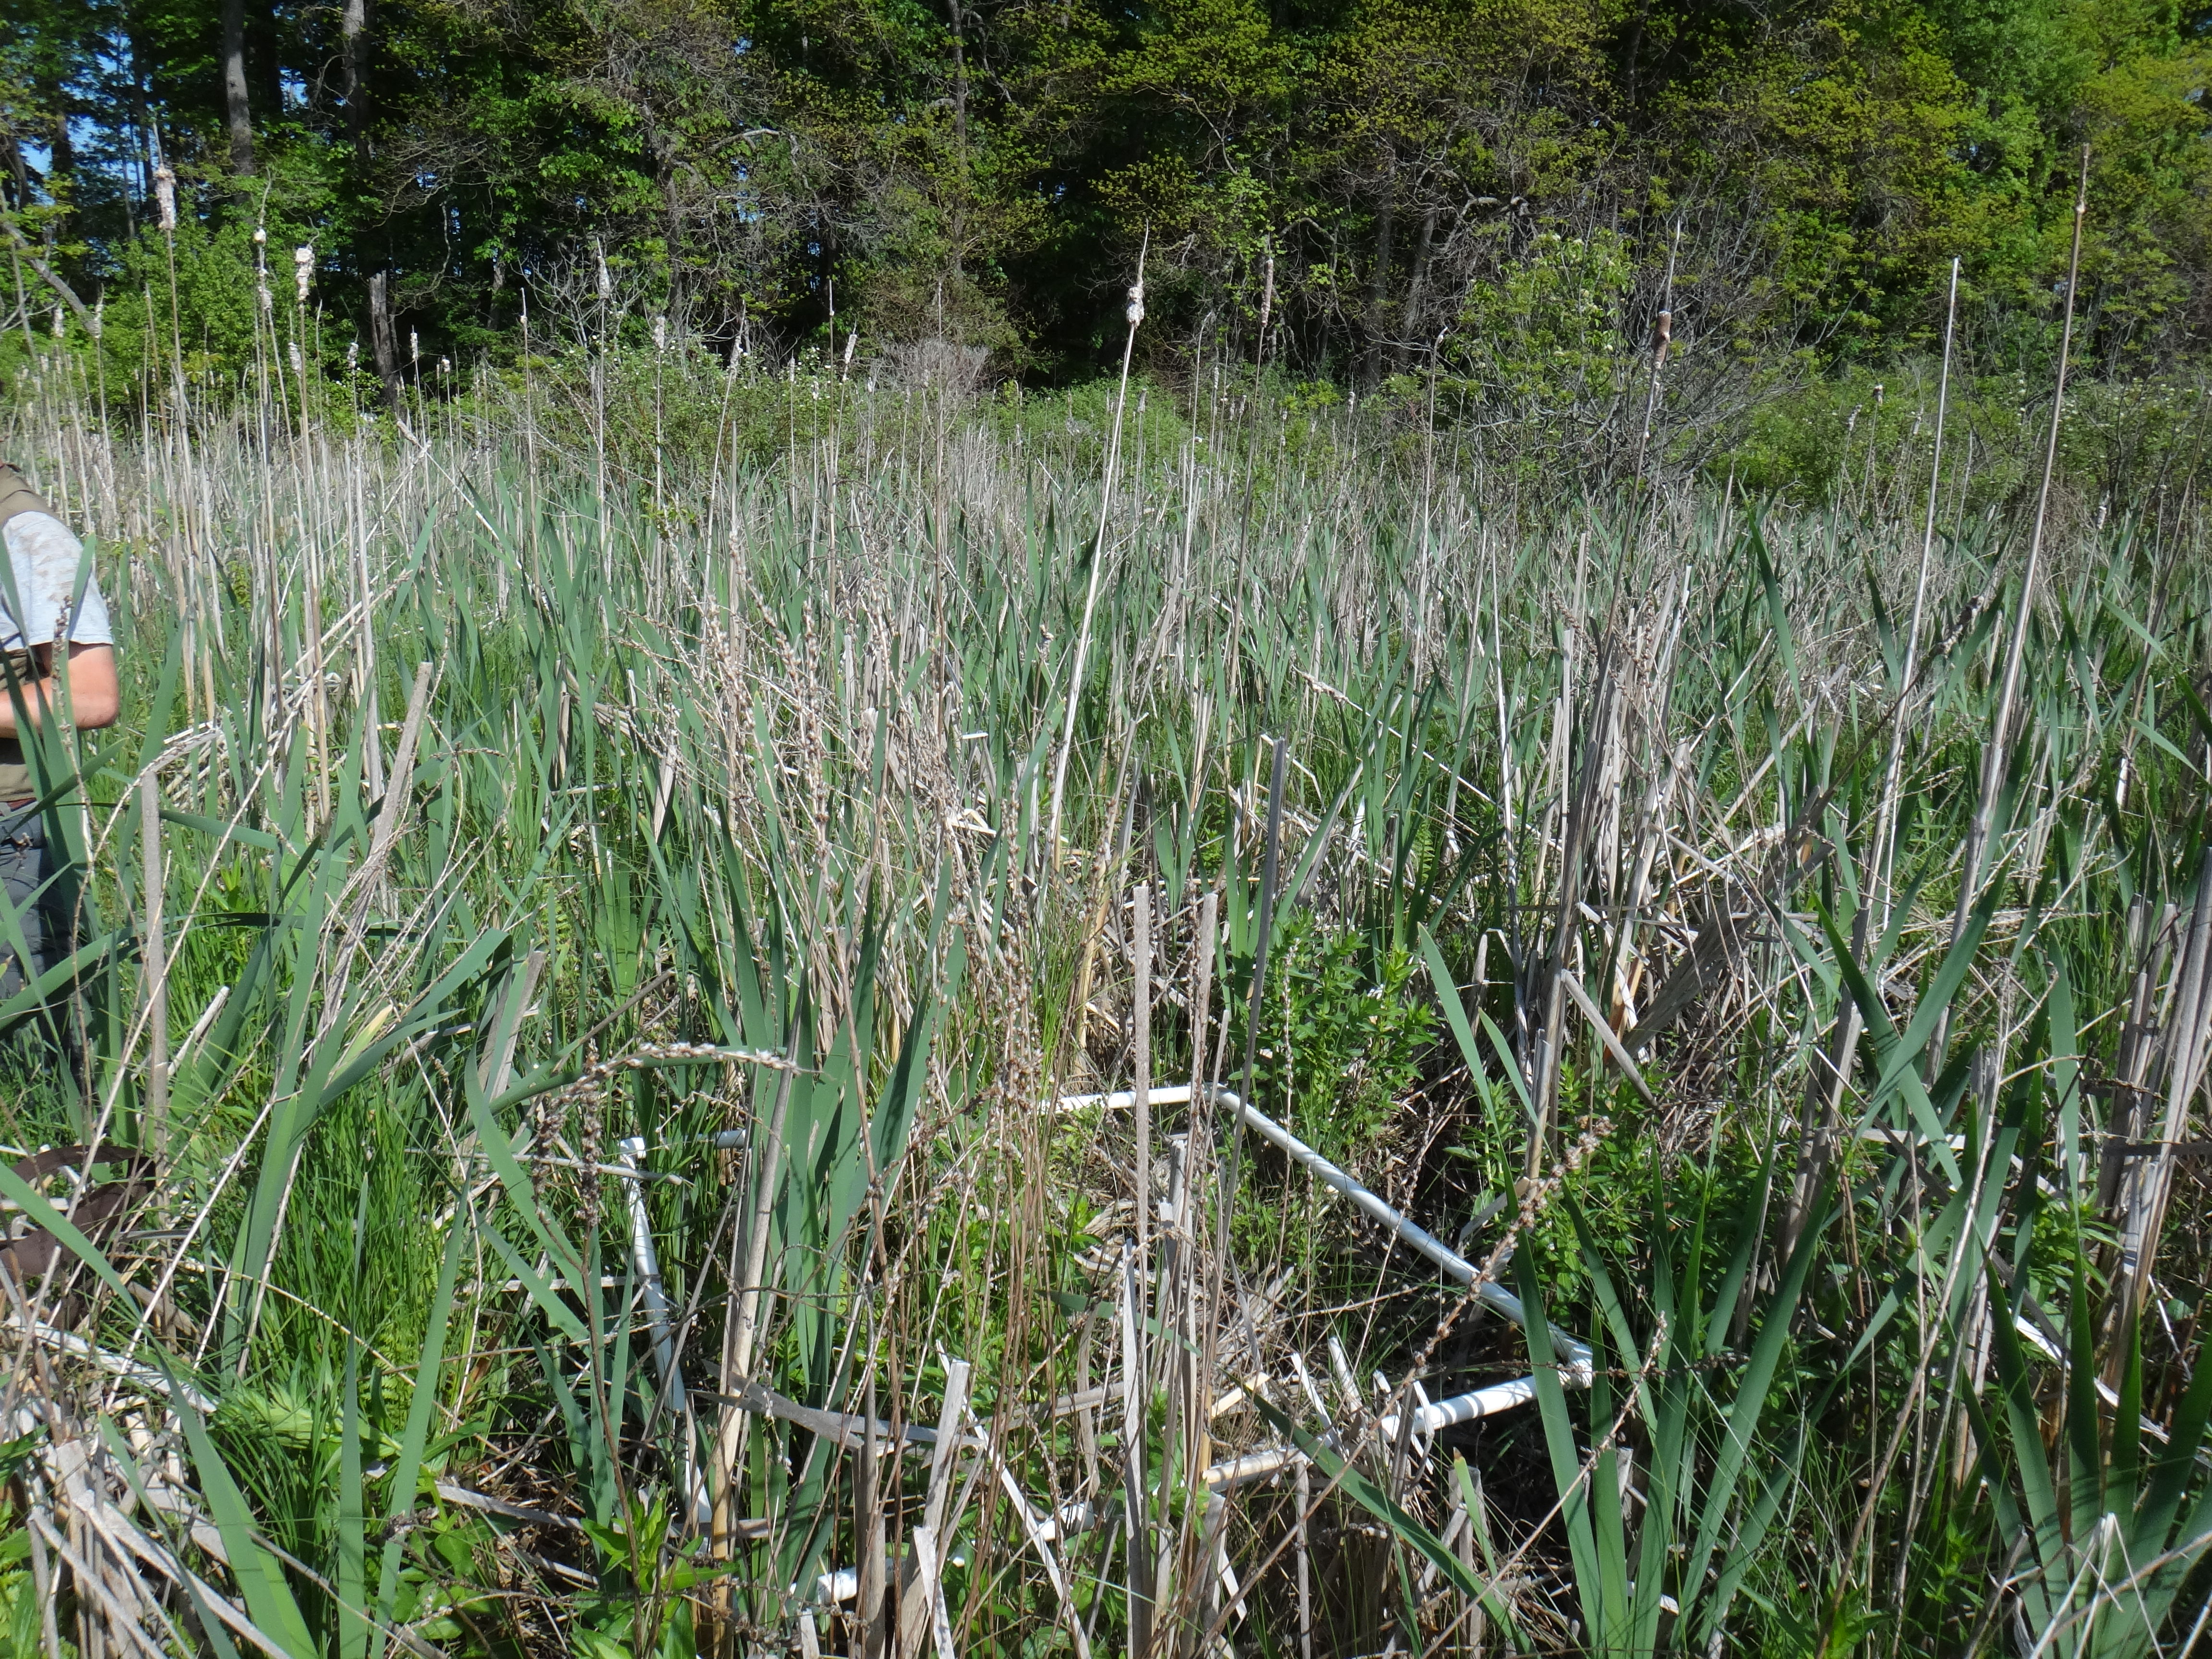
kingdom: Plantae
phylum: Tracheophyta
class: Magnoliopsida
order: Ericales
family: Balsaminaceae
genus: Impatiens
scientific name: Impatiens capensis
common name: Orange balsam
